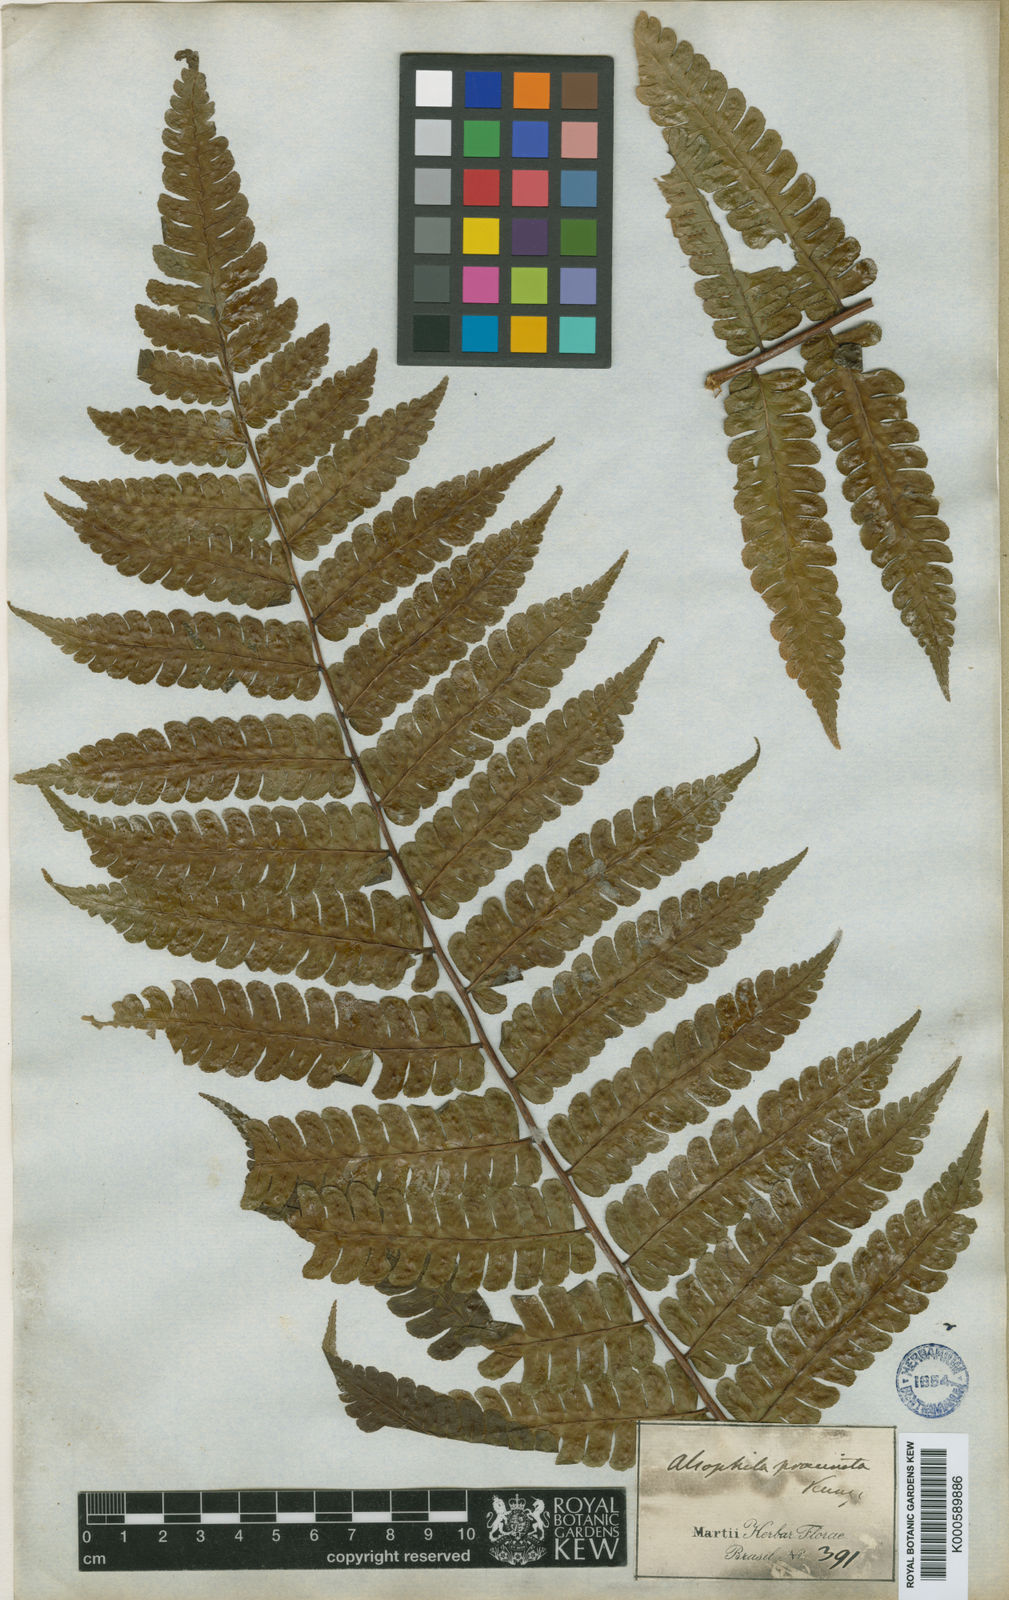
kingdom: Plantae
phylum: Tracheophyta
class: Polypodiopsida
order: Cyatheales
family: Cyatheaceae
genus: Cyathea
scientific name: Cyathea praecincta
